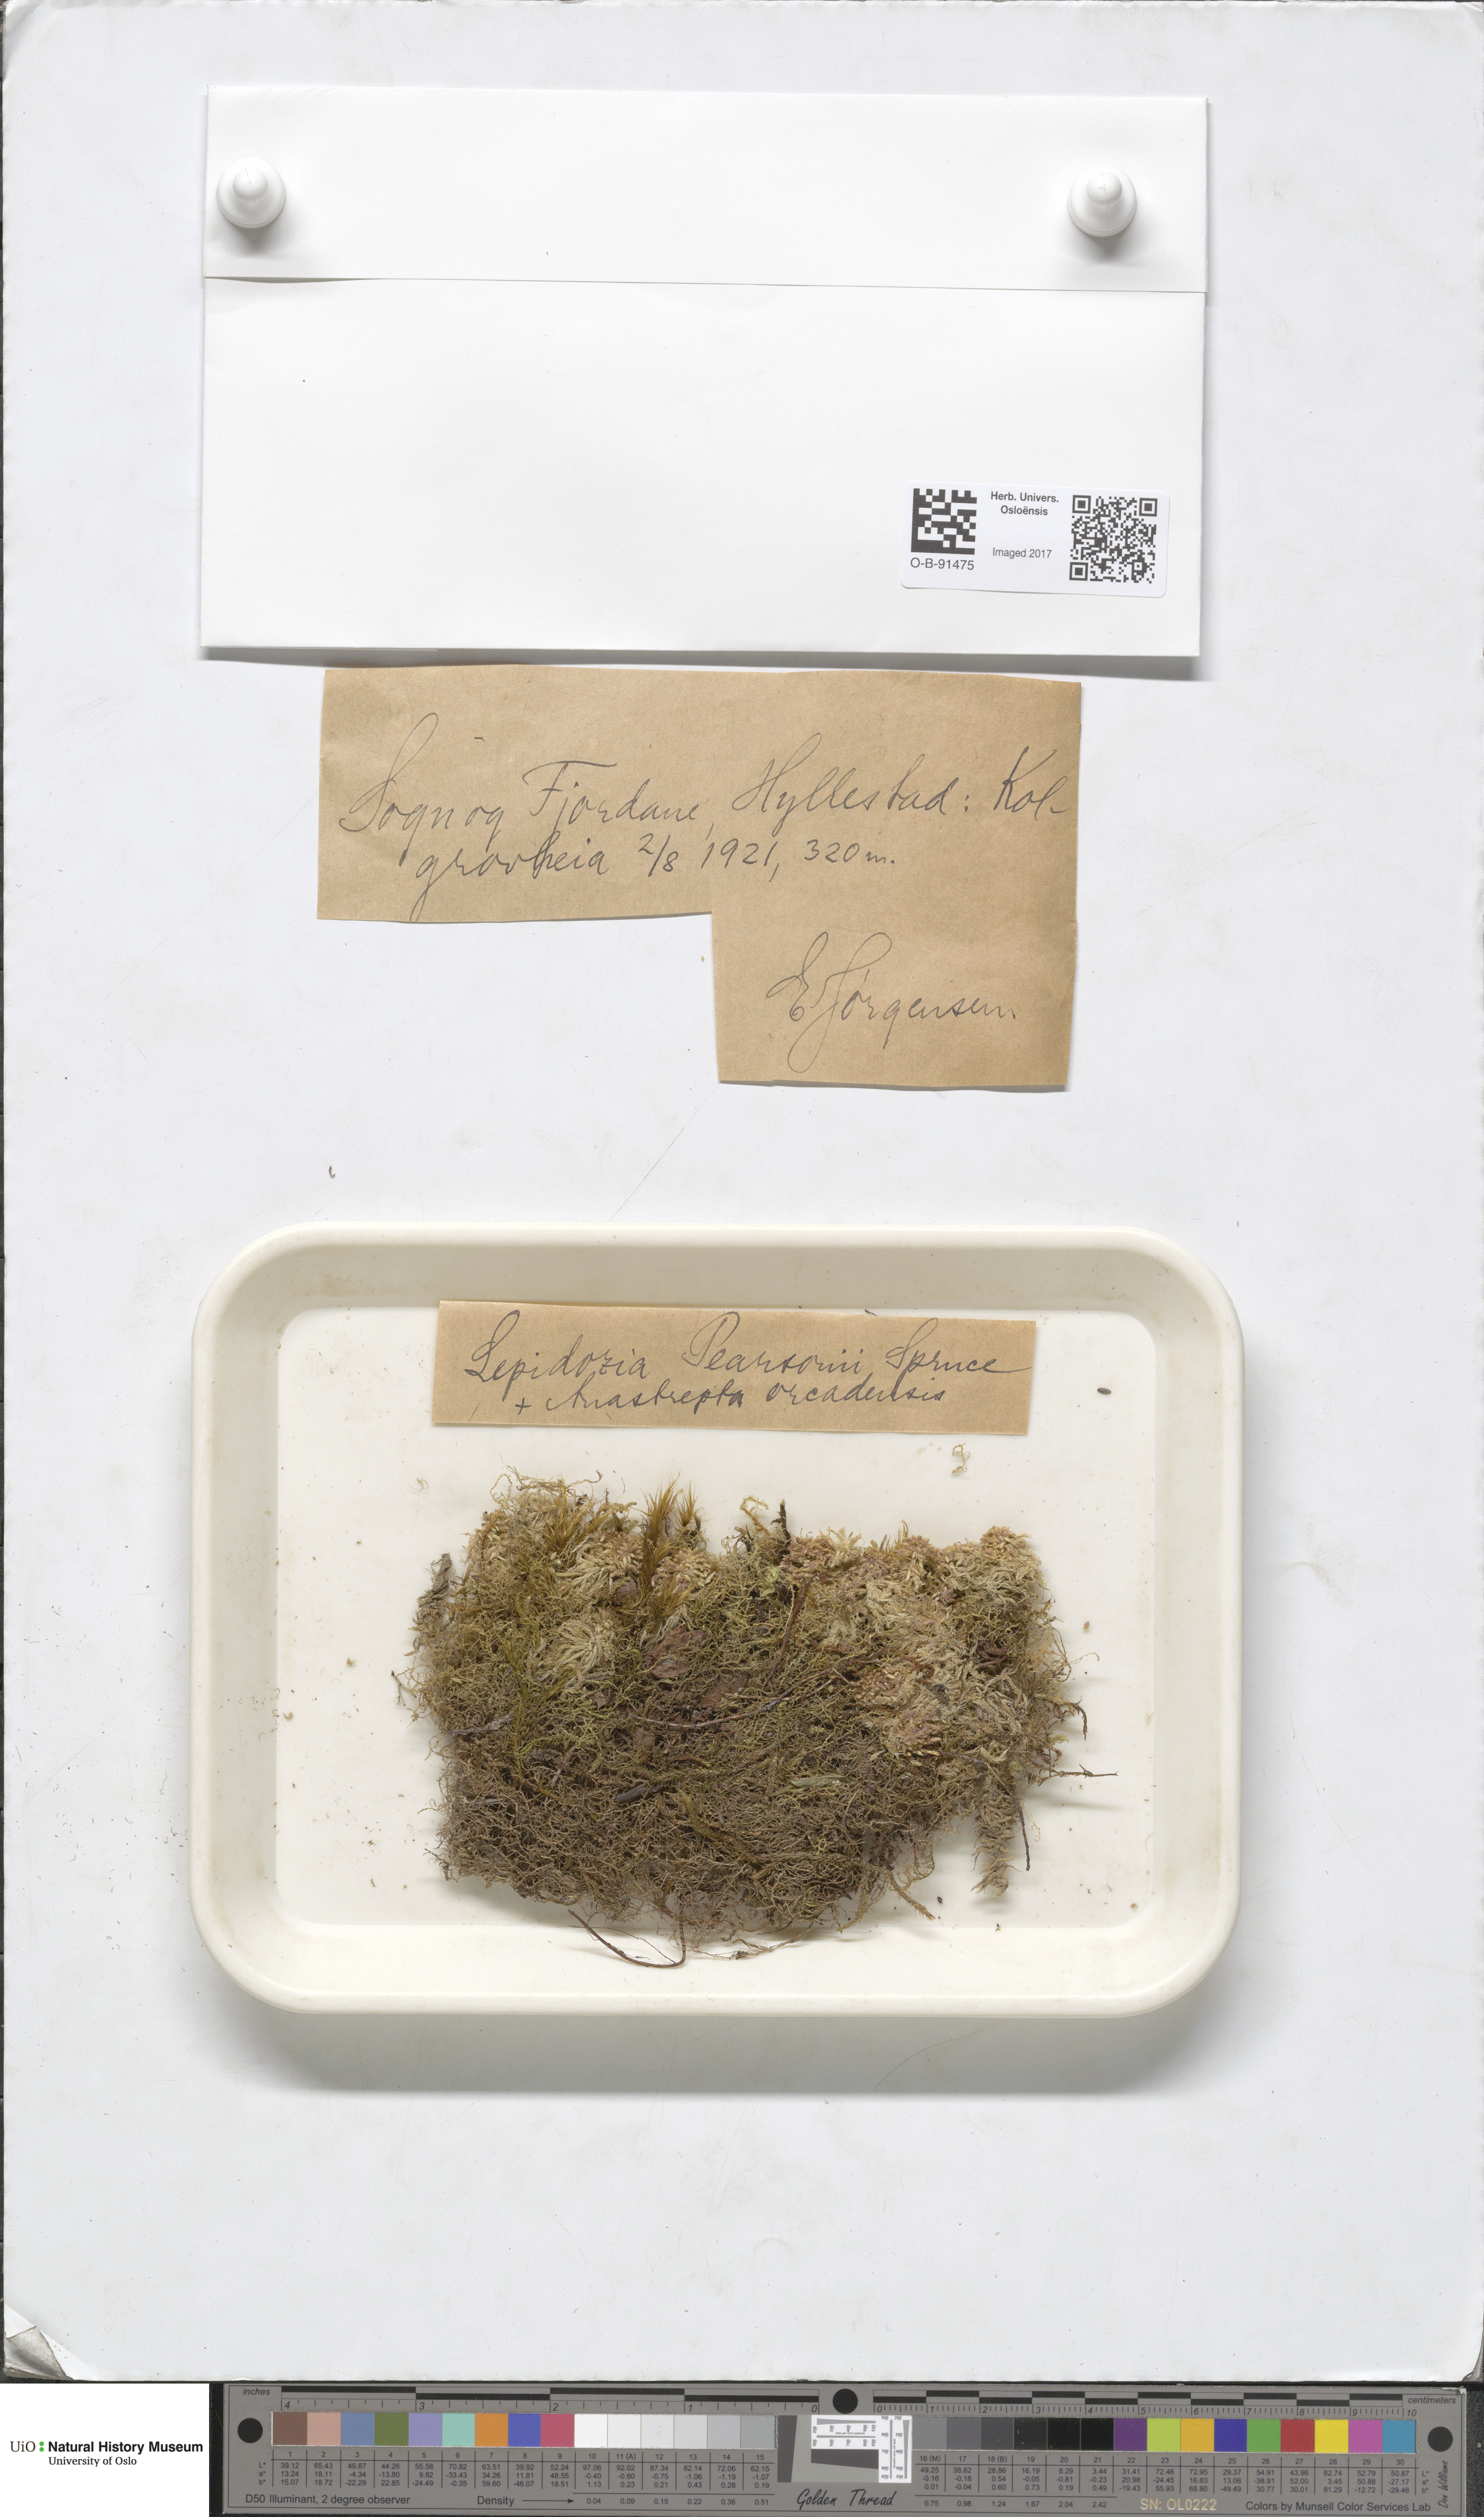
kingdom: Plantae
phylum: Marchantiophyta
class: Jungermanniopsida
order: Jungermanniales
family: Lepidoziaceae
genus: Lepidozia
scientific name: Lepidozia pearsonii
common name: Pearson's fingerwort
